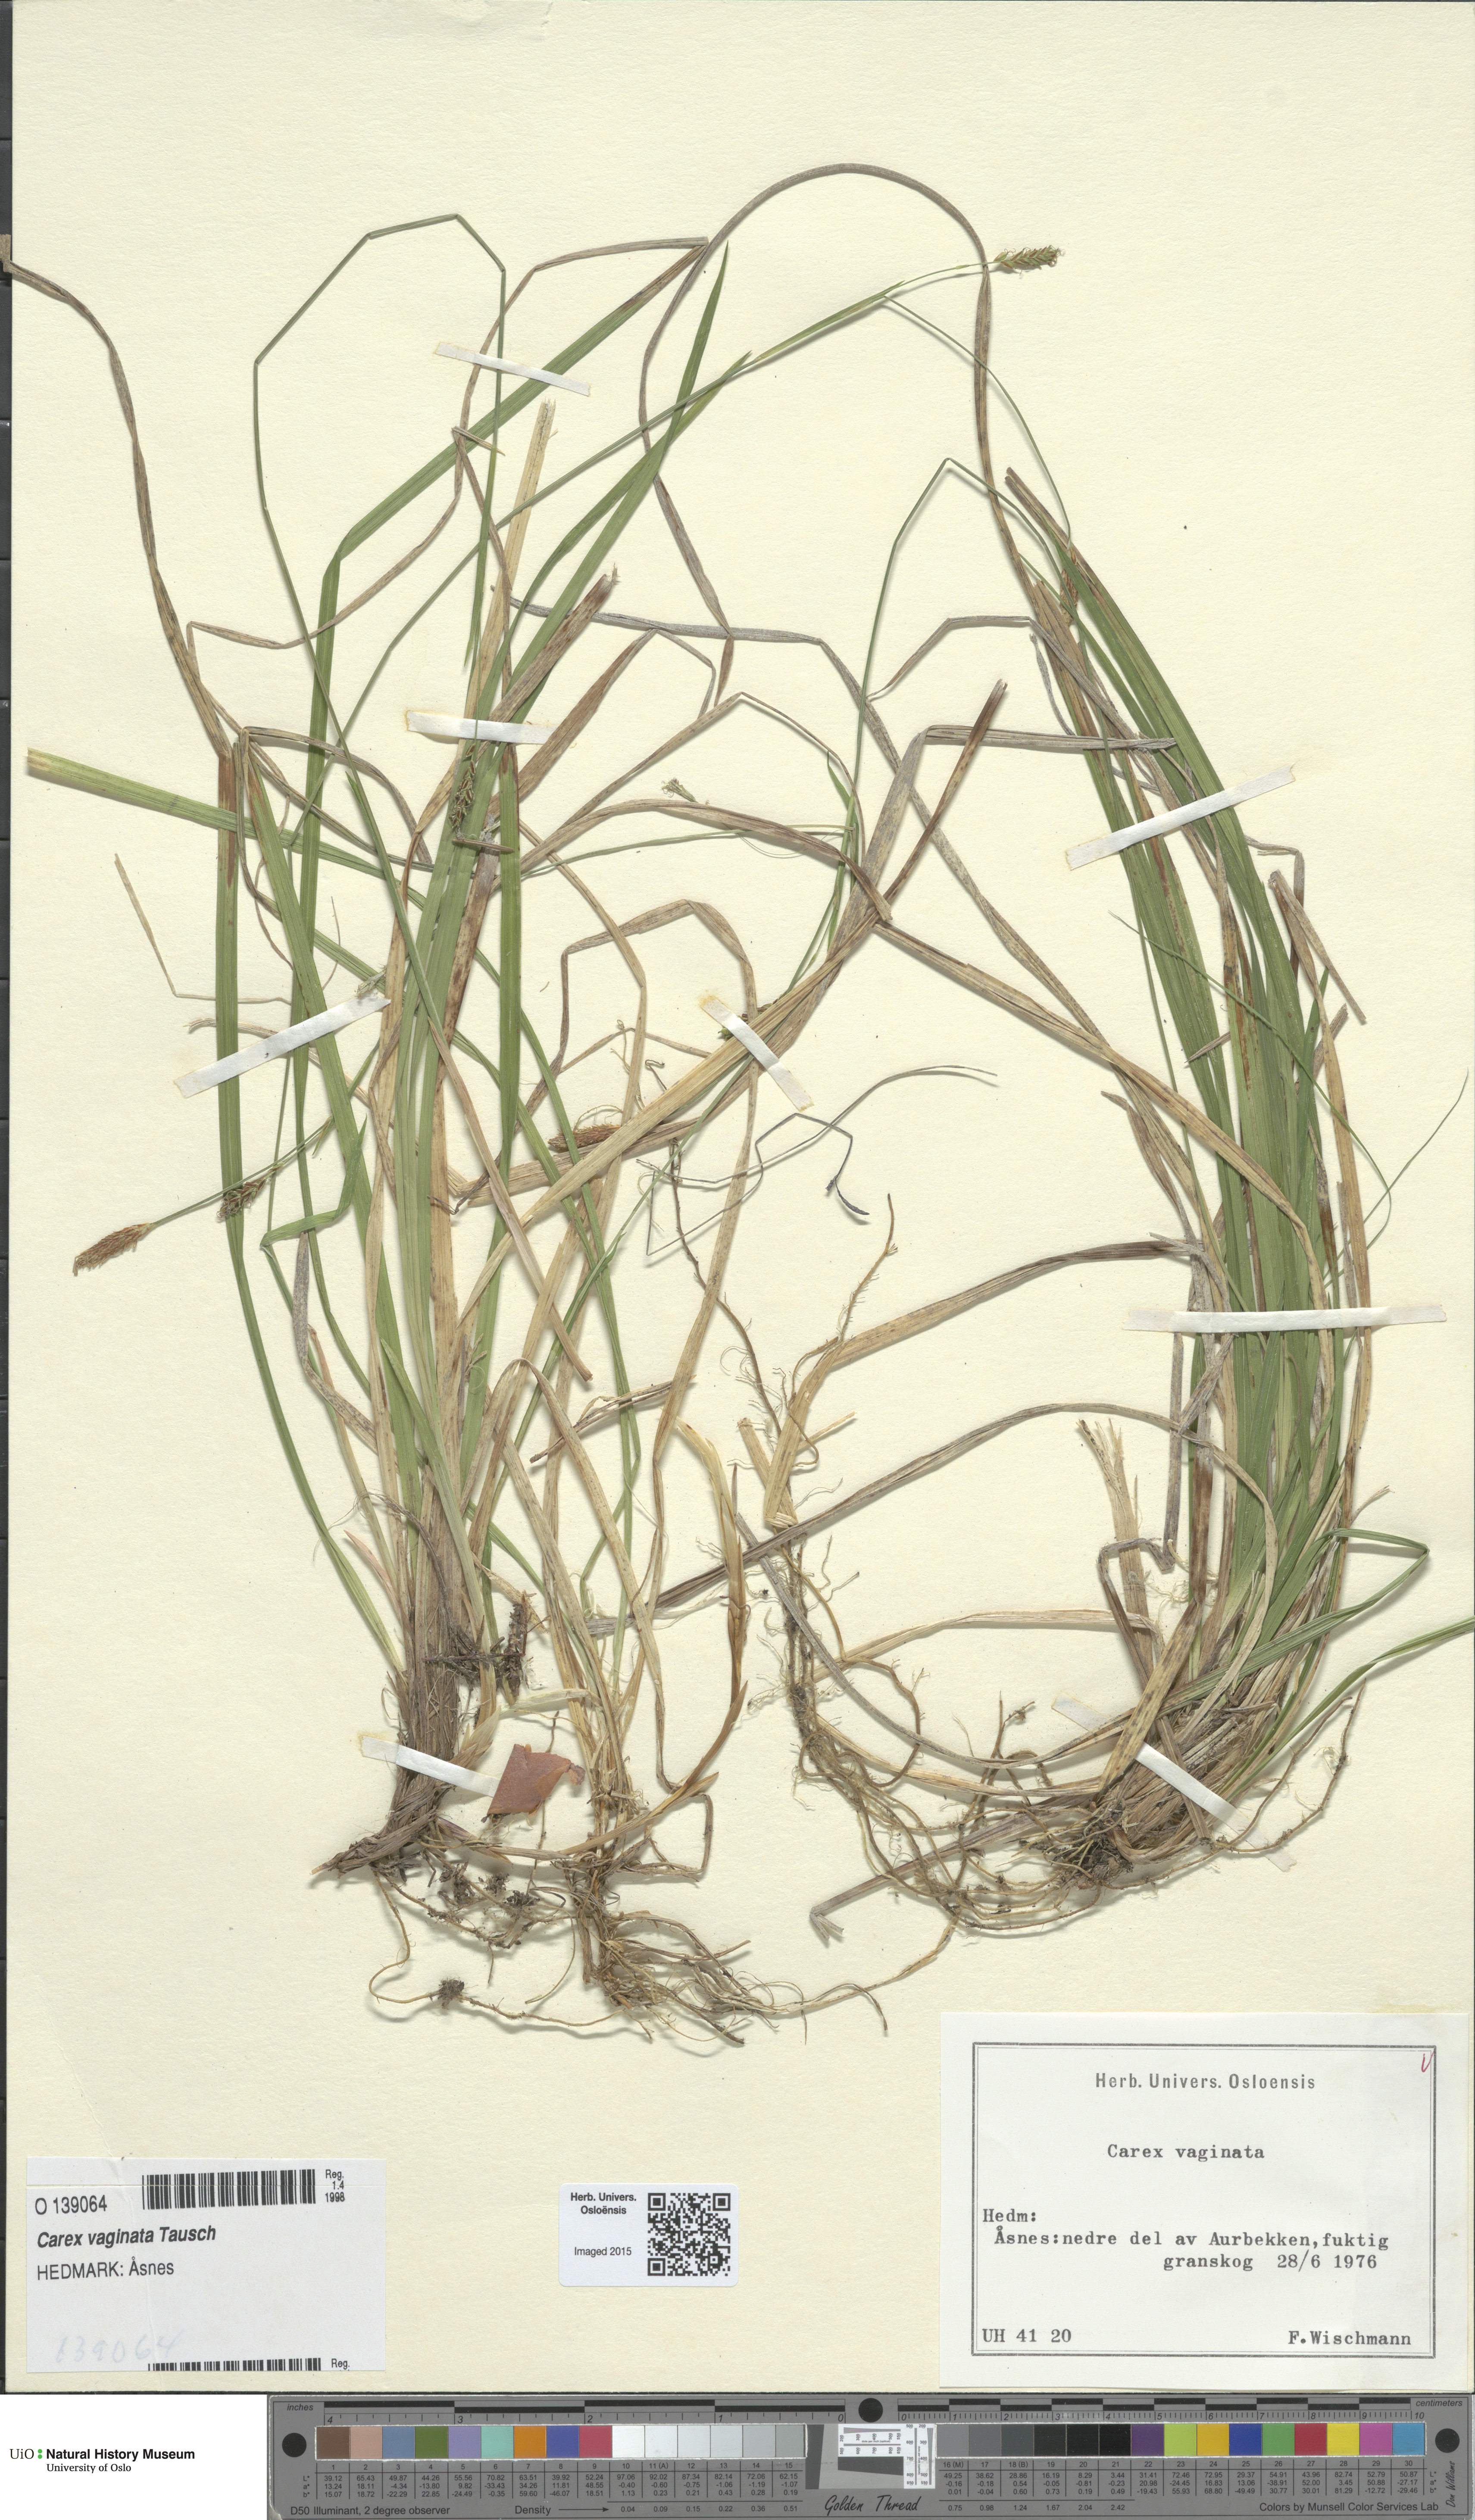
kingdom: Plantae
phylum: Tracheophyta
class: Liliopsida
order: Poales
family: Cyperaceae
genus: Carex
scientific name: Carex vaginata
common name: Sheathed sedge
